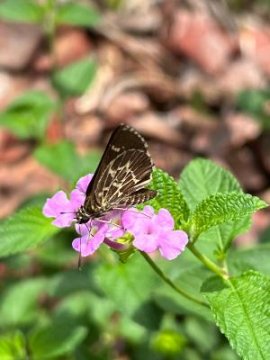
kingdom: Animalia
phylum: Arthropoda
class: Insecta
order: Lepidoptera
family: Hesperiidae
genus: Mastor
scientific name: Mastor aesculapius
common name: Lace-winged Roadside-Skipper
